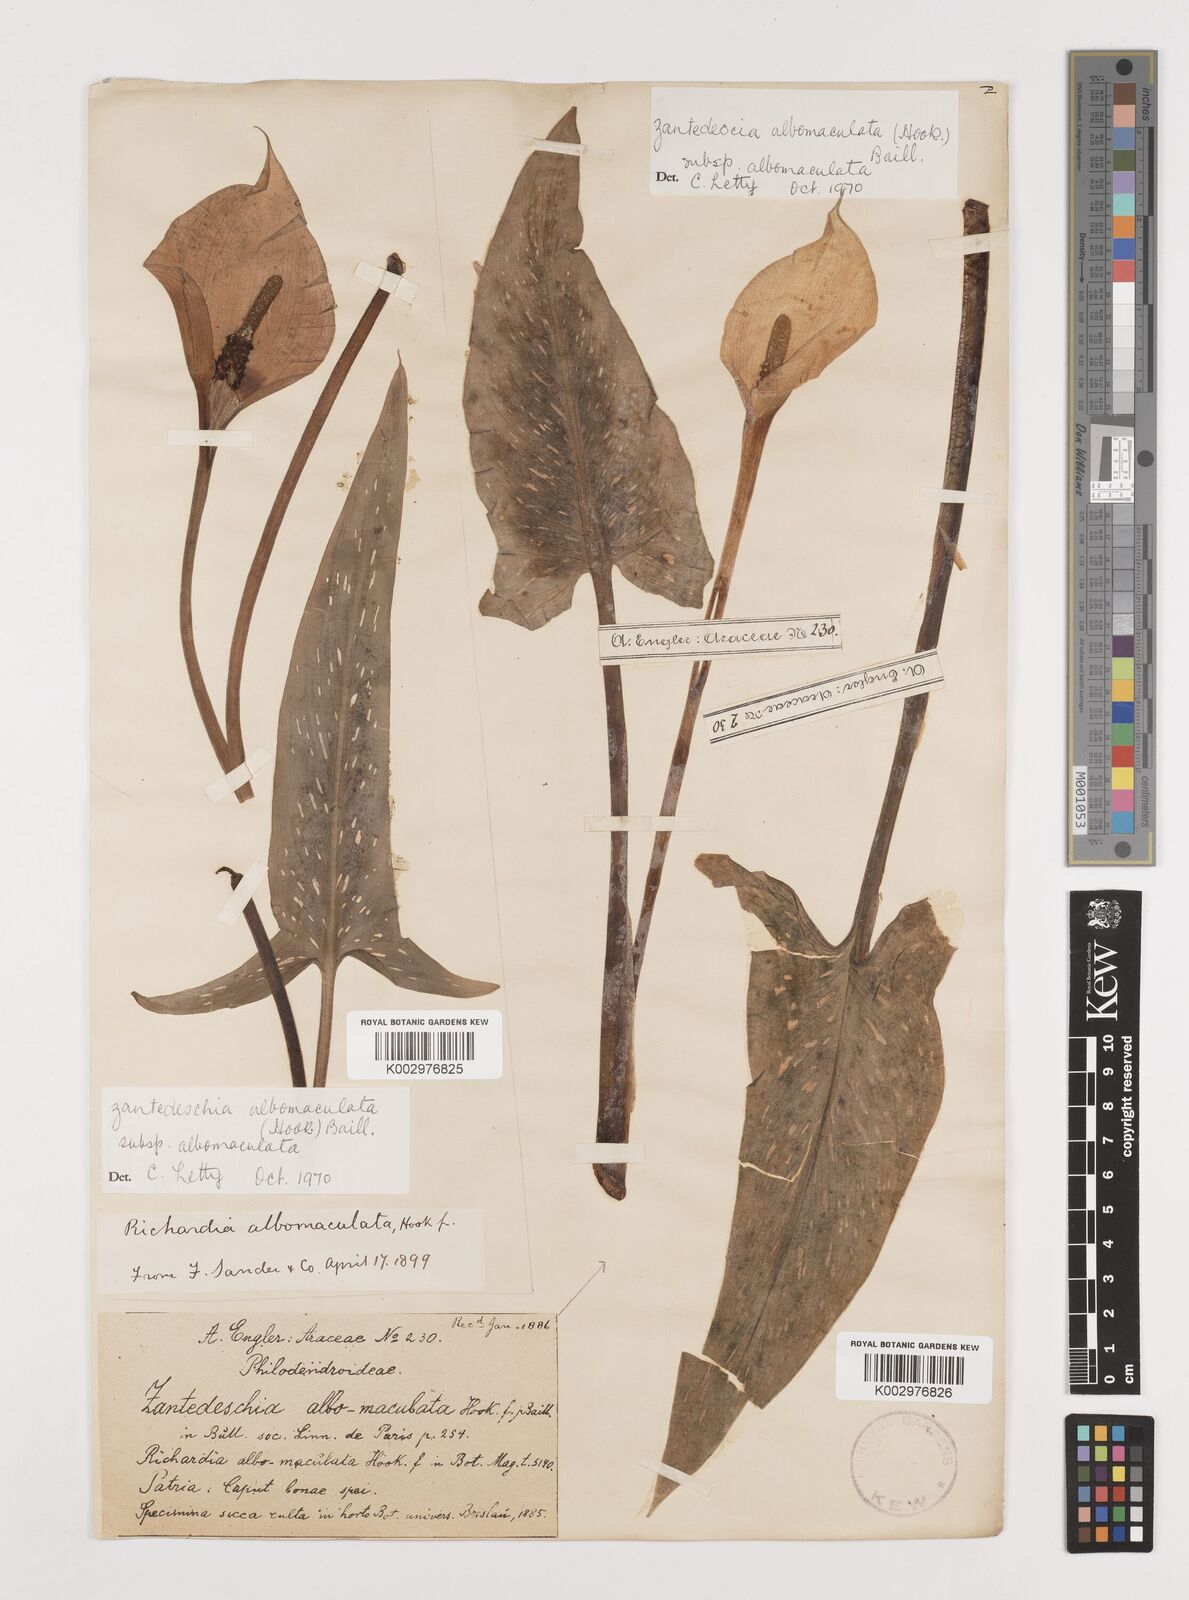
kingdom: Plantae
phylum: Tracheophyta
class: Liliopsida
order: Alismatales
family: Araceae
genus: Zantedeschia
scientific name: Zantedeschia albomaculata
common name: Spotted calla lily
